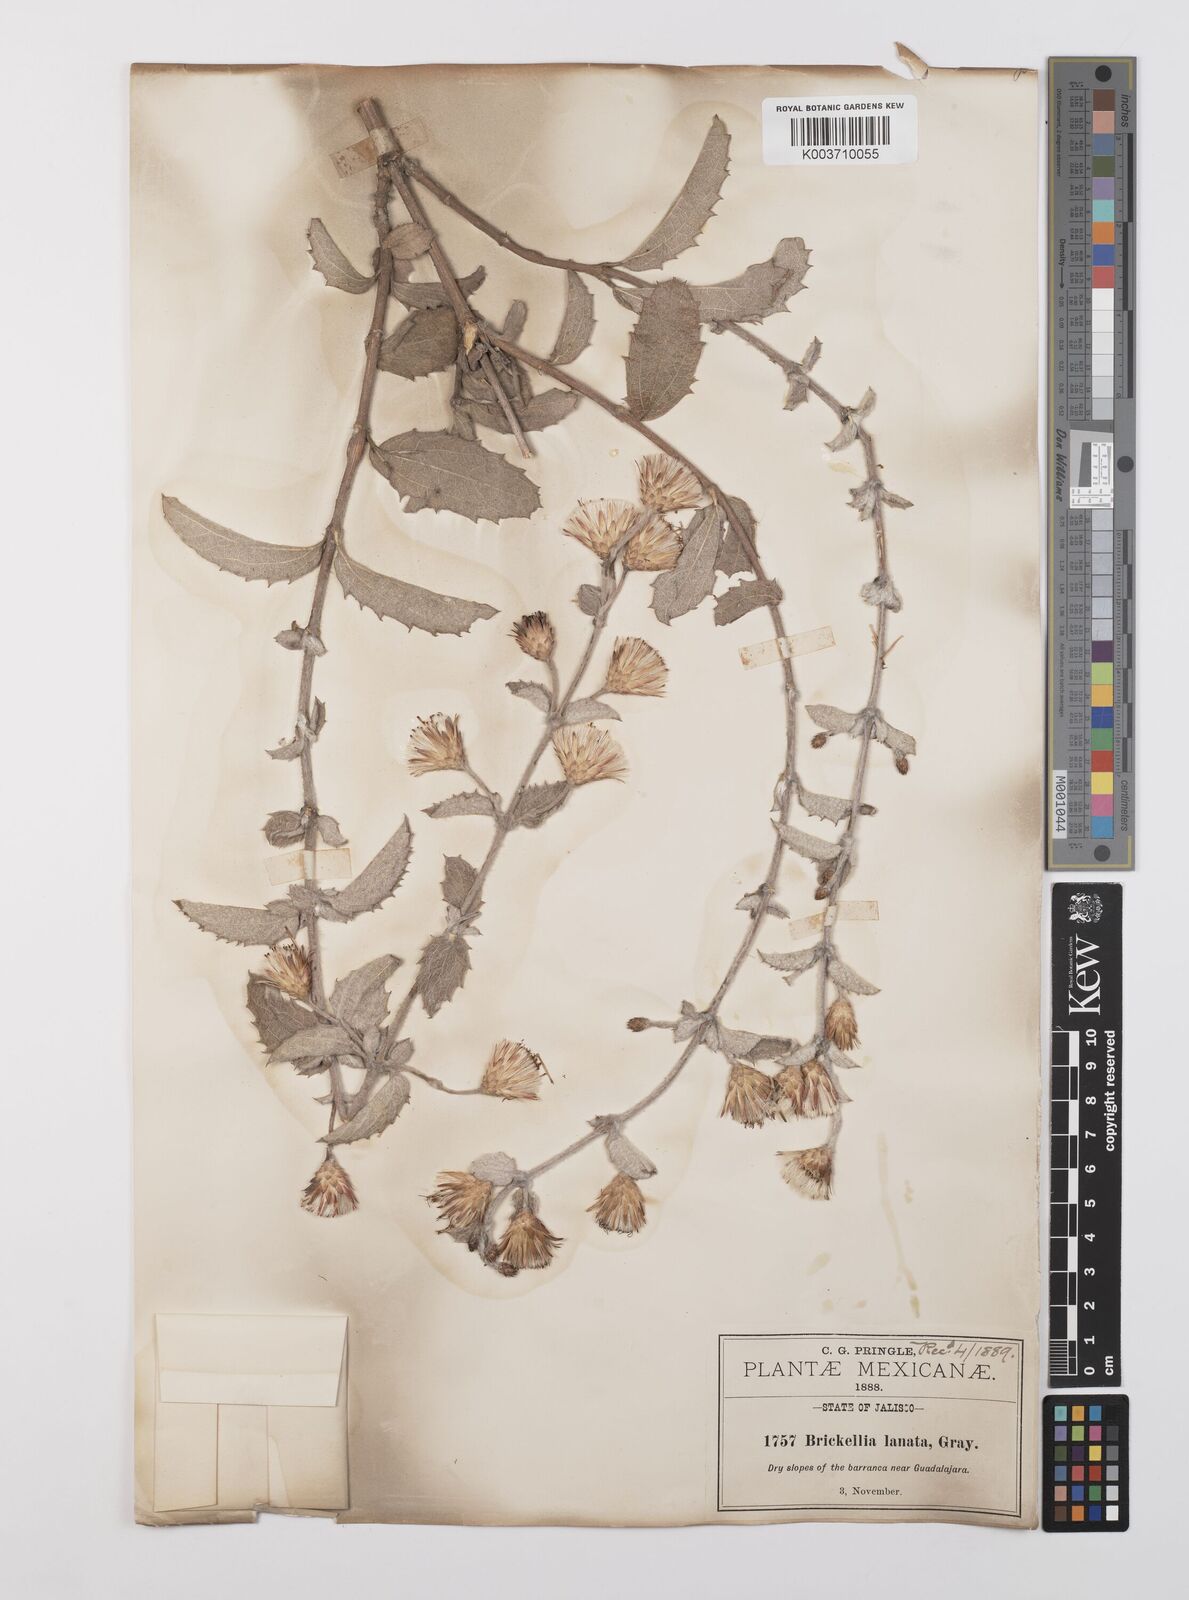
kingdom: Plantae
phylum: Tracheophyta
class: Magnoliopsida
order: Asterales
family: Asteraceae
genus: Brickellia
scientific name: Brickellia lanata
